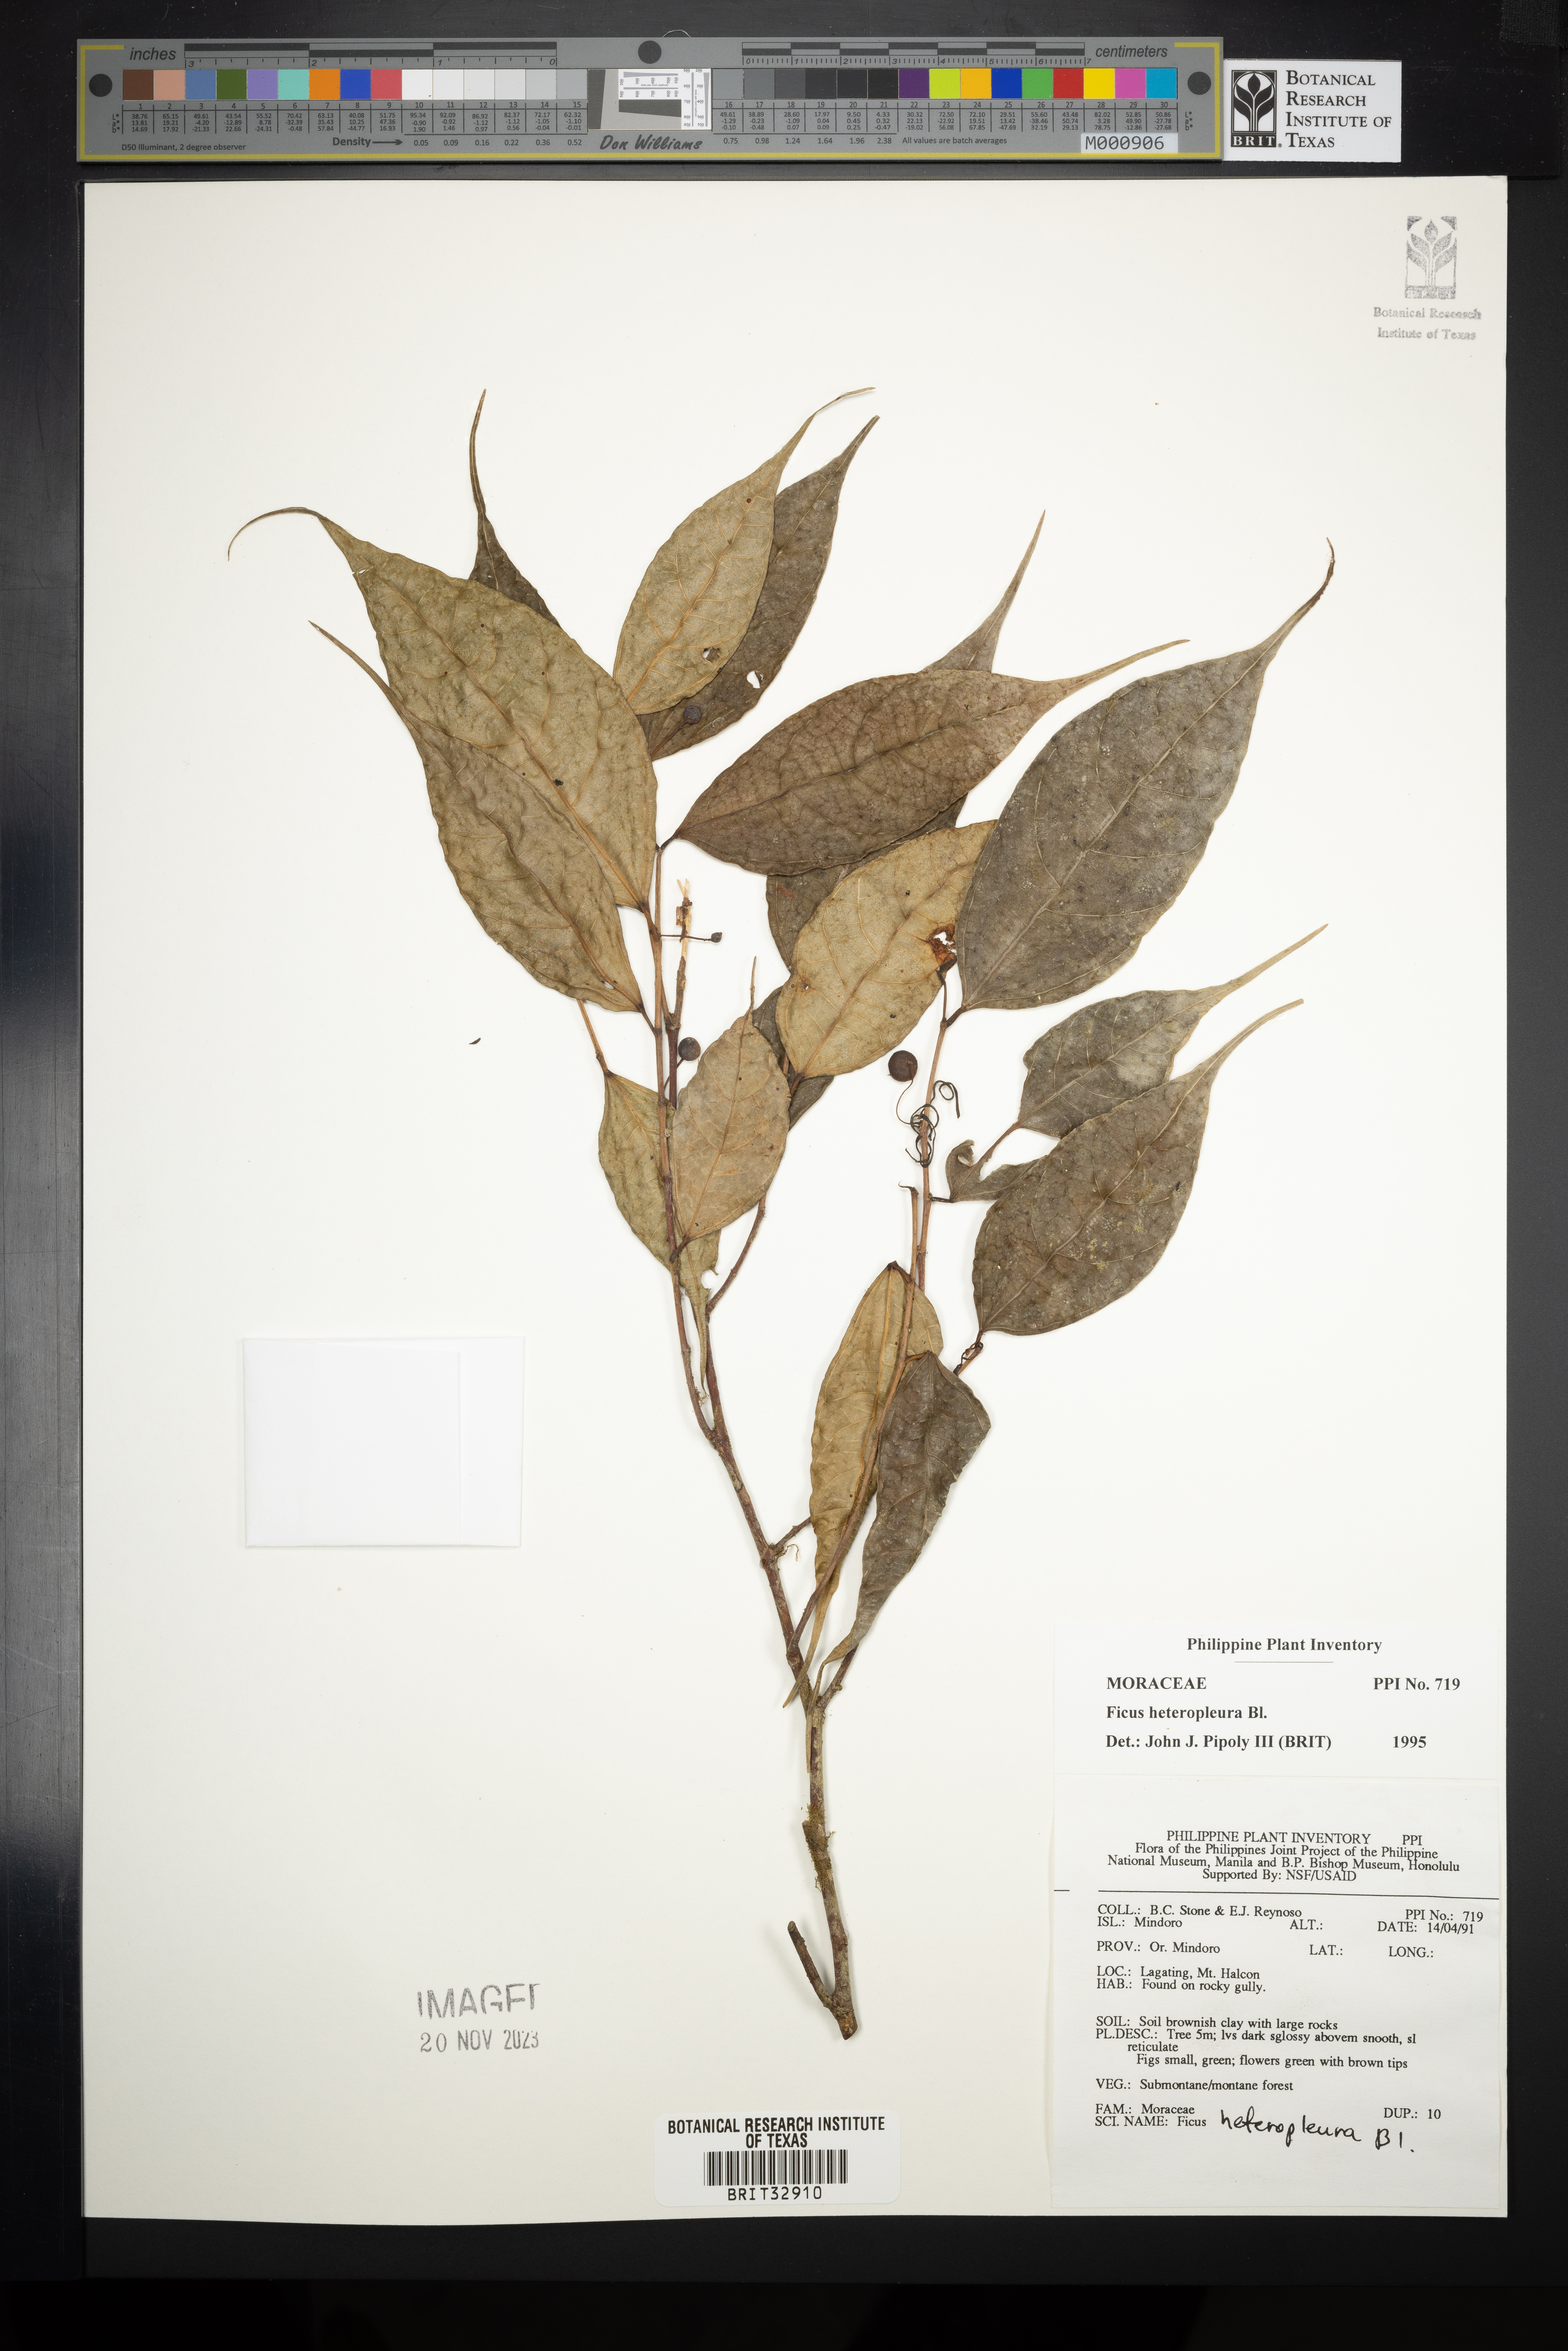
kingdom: Plantae
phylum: Tracheophyta
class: Magnoliopsida
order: Rosales
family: Moraceae
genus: Ficus
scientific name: Ficus heteropleura
